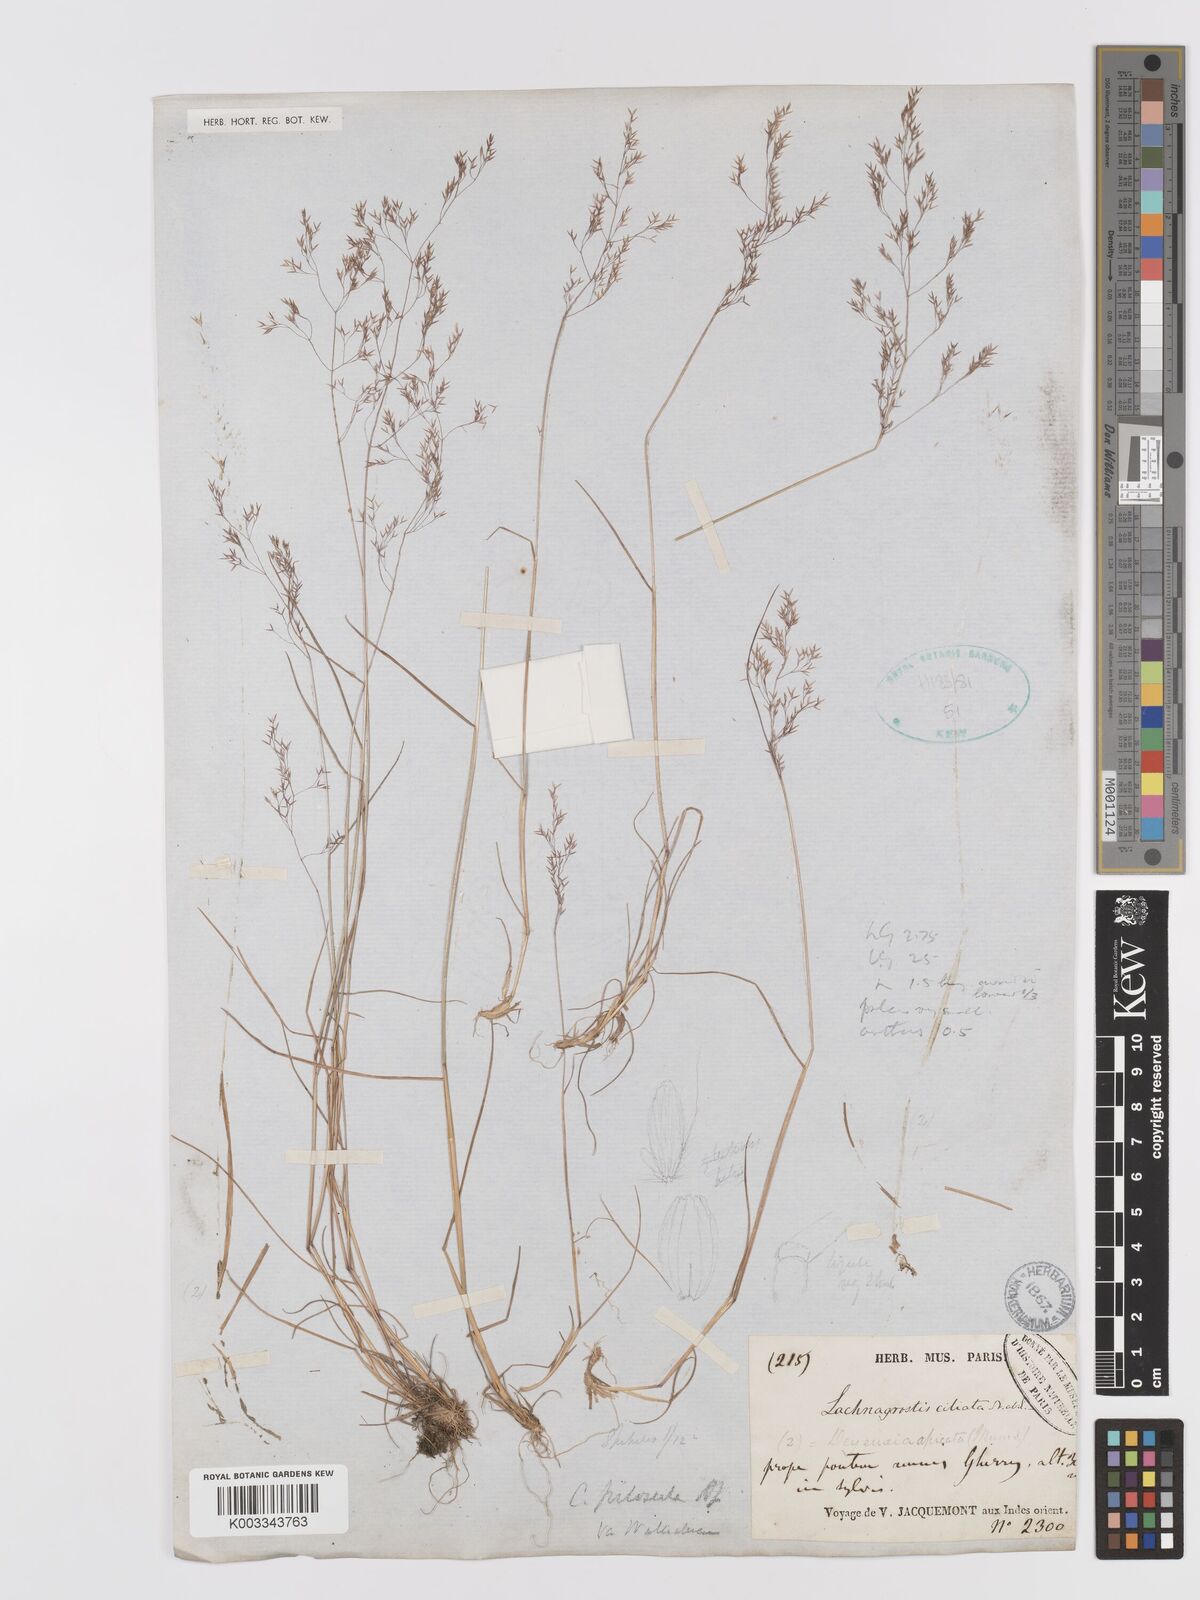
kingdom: Plantae
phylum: Tracheophyta
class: Liliopsida
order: Poales
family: Poaceae
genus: Agrostis
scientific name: Agrostis pilosula
